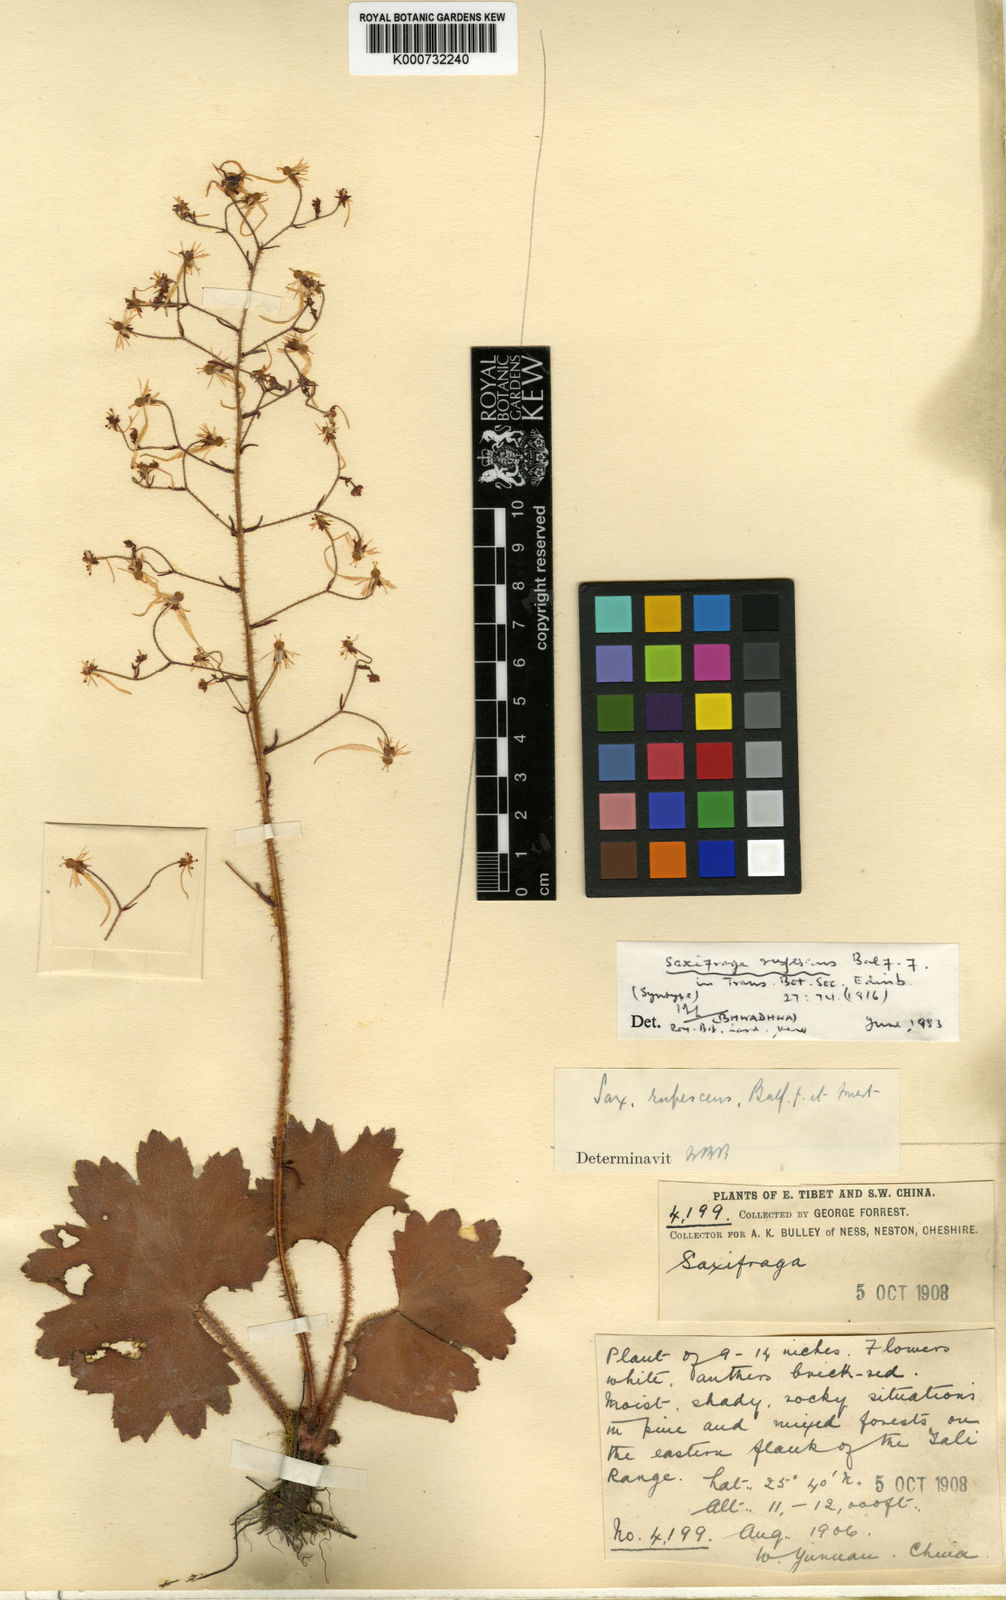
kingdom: Plantae
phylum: Tracheophyta
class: Magnoliopsida
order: Saxifragales
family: Saxifragaceae
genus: Saxifraga
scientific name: Saxifraga rufescens
